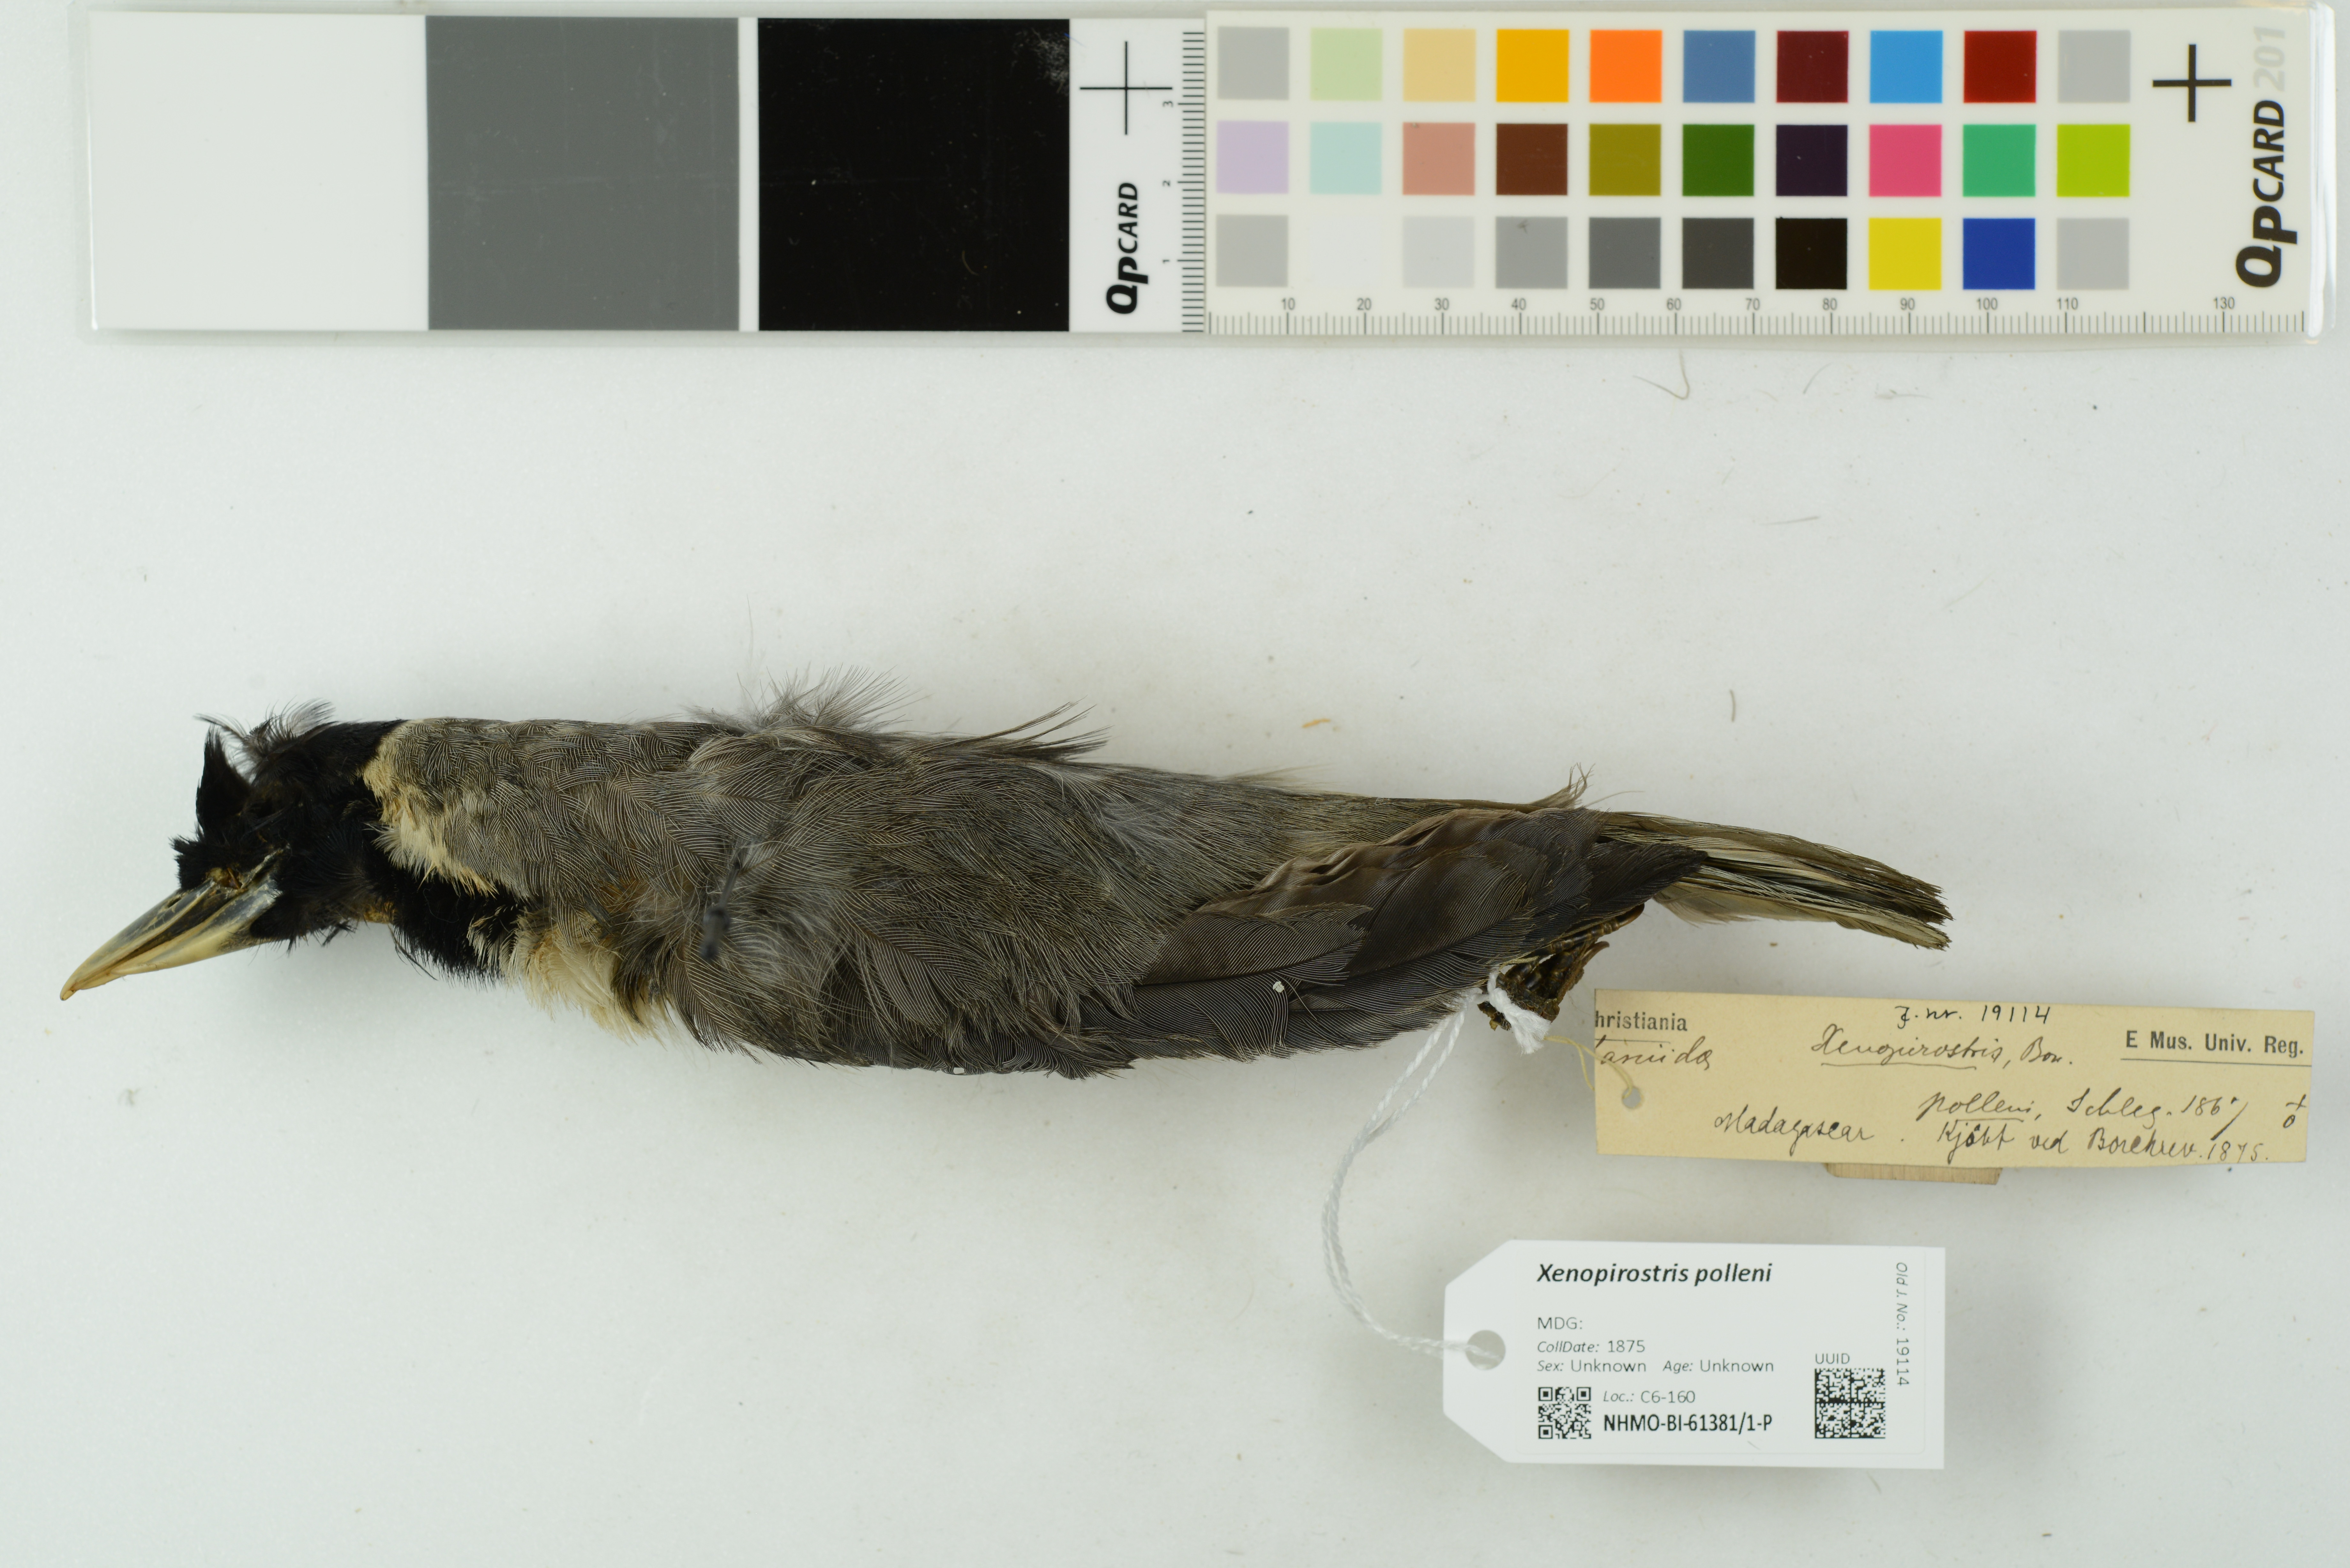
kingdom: Animalia
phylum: Chordata
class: Aves
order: Passeriformes
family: Vangidae
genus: Xenopirostris
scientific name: Xenopirostris polleni
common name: Pollen's vanga
